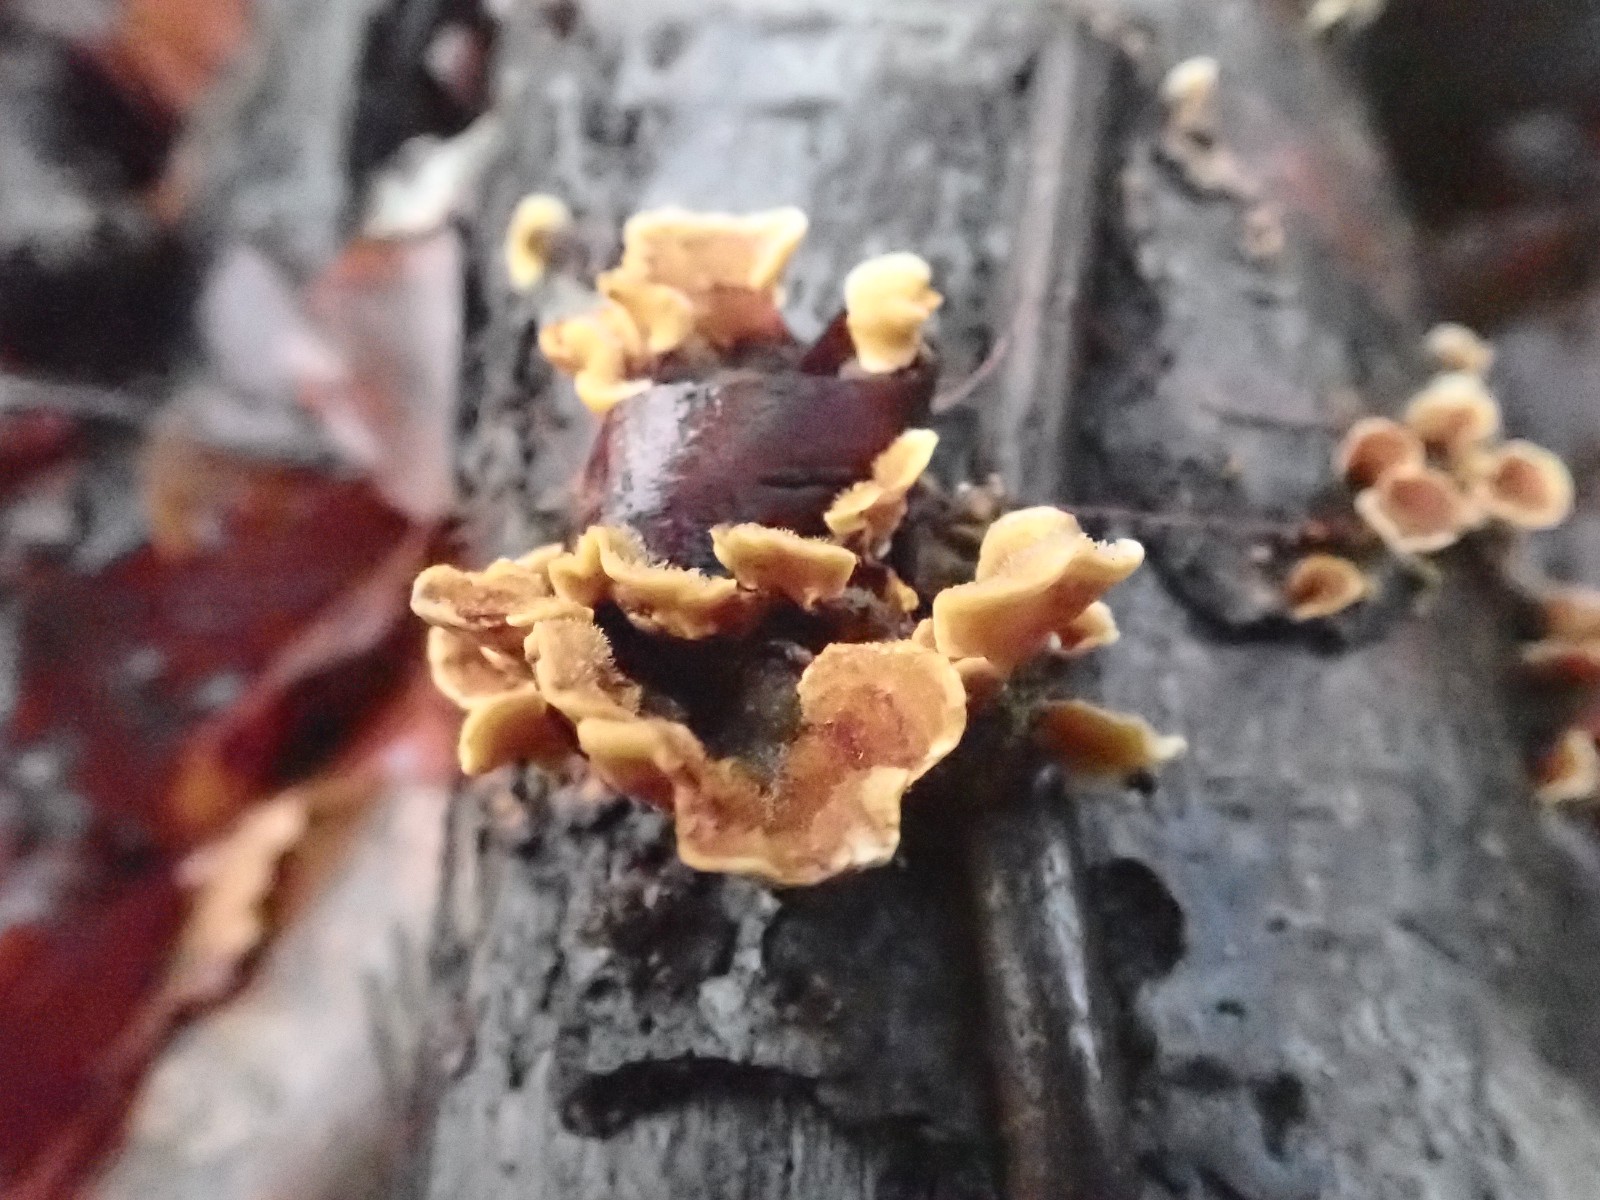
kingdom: Fungi
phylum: Basidiomycota
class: Agaricomycetes
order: Russulales
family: Stereaceae
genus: Stereum
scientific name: Stereum hirsutum
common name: håret lædersvamp
